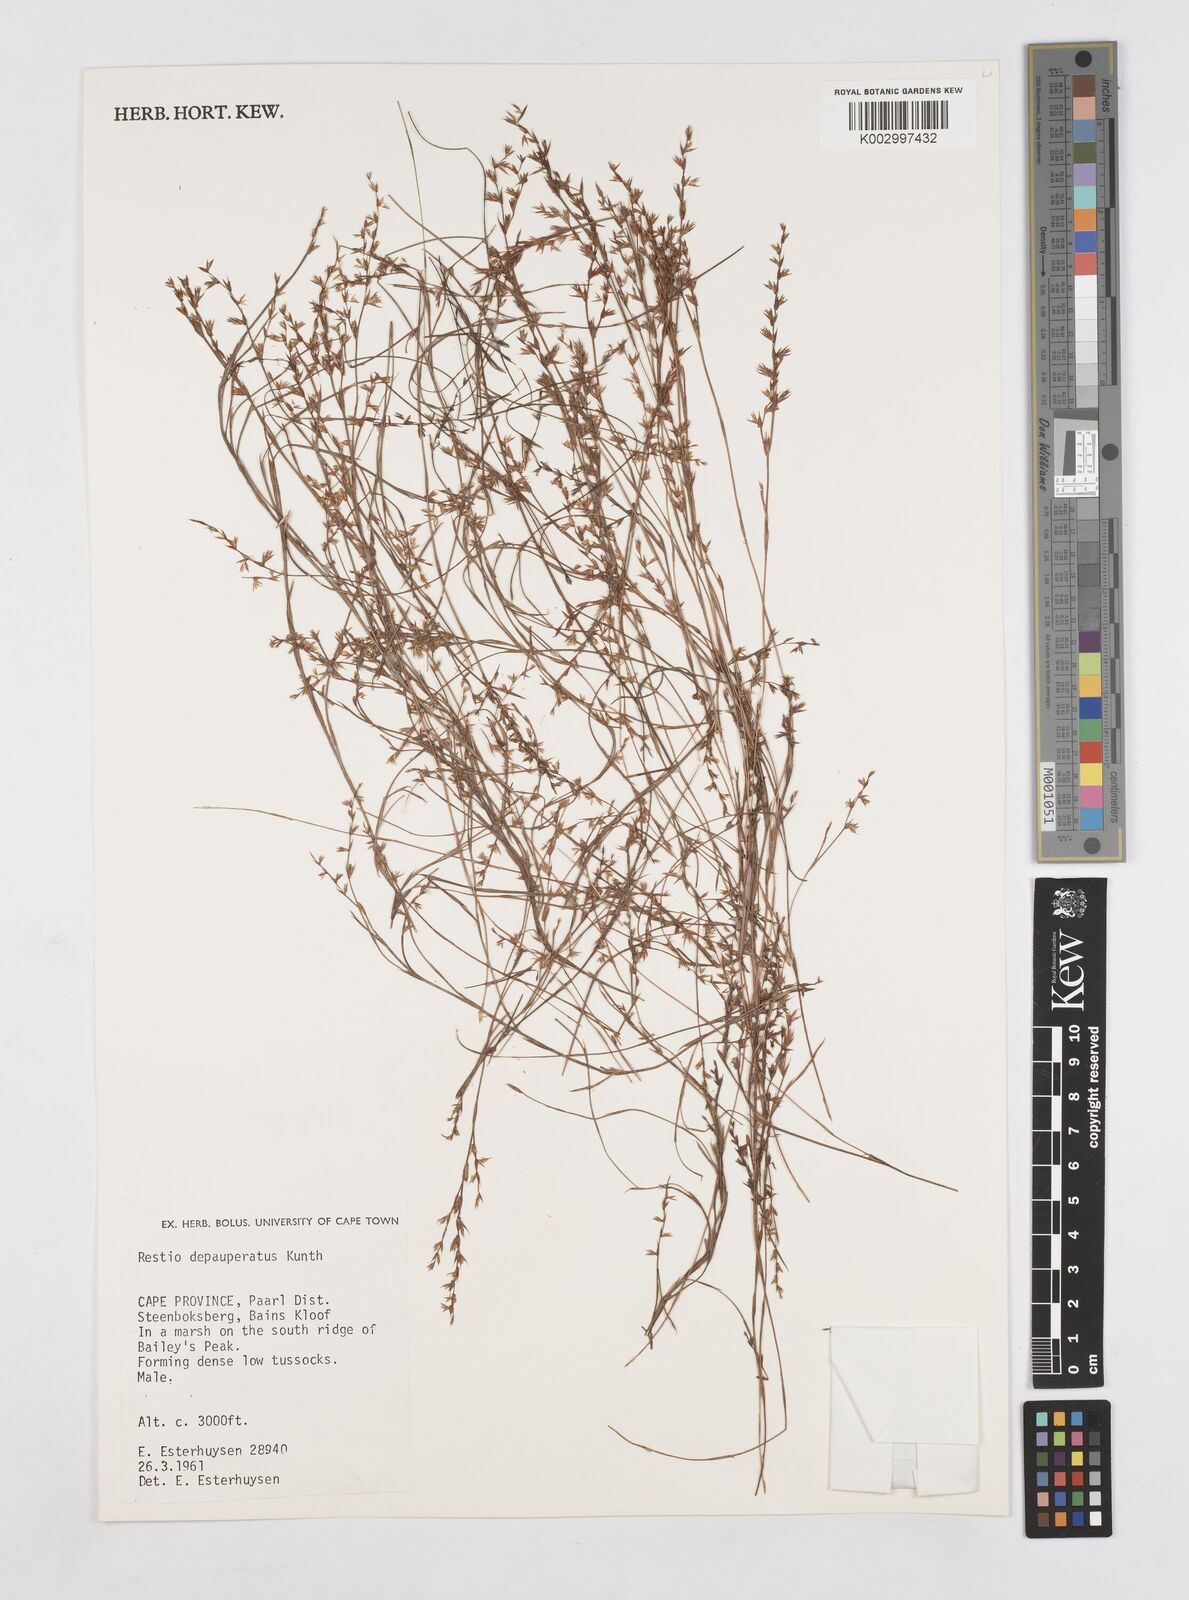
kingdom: Plantae
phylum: Tracheophyta
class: Liliopsida
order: Poales
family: Restionaceae
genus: Platycaulos
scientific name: Platycaulos depauperatus
